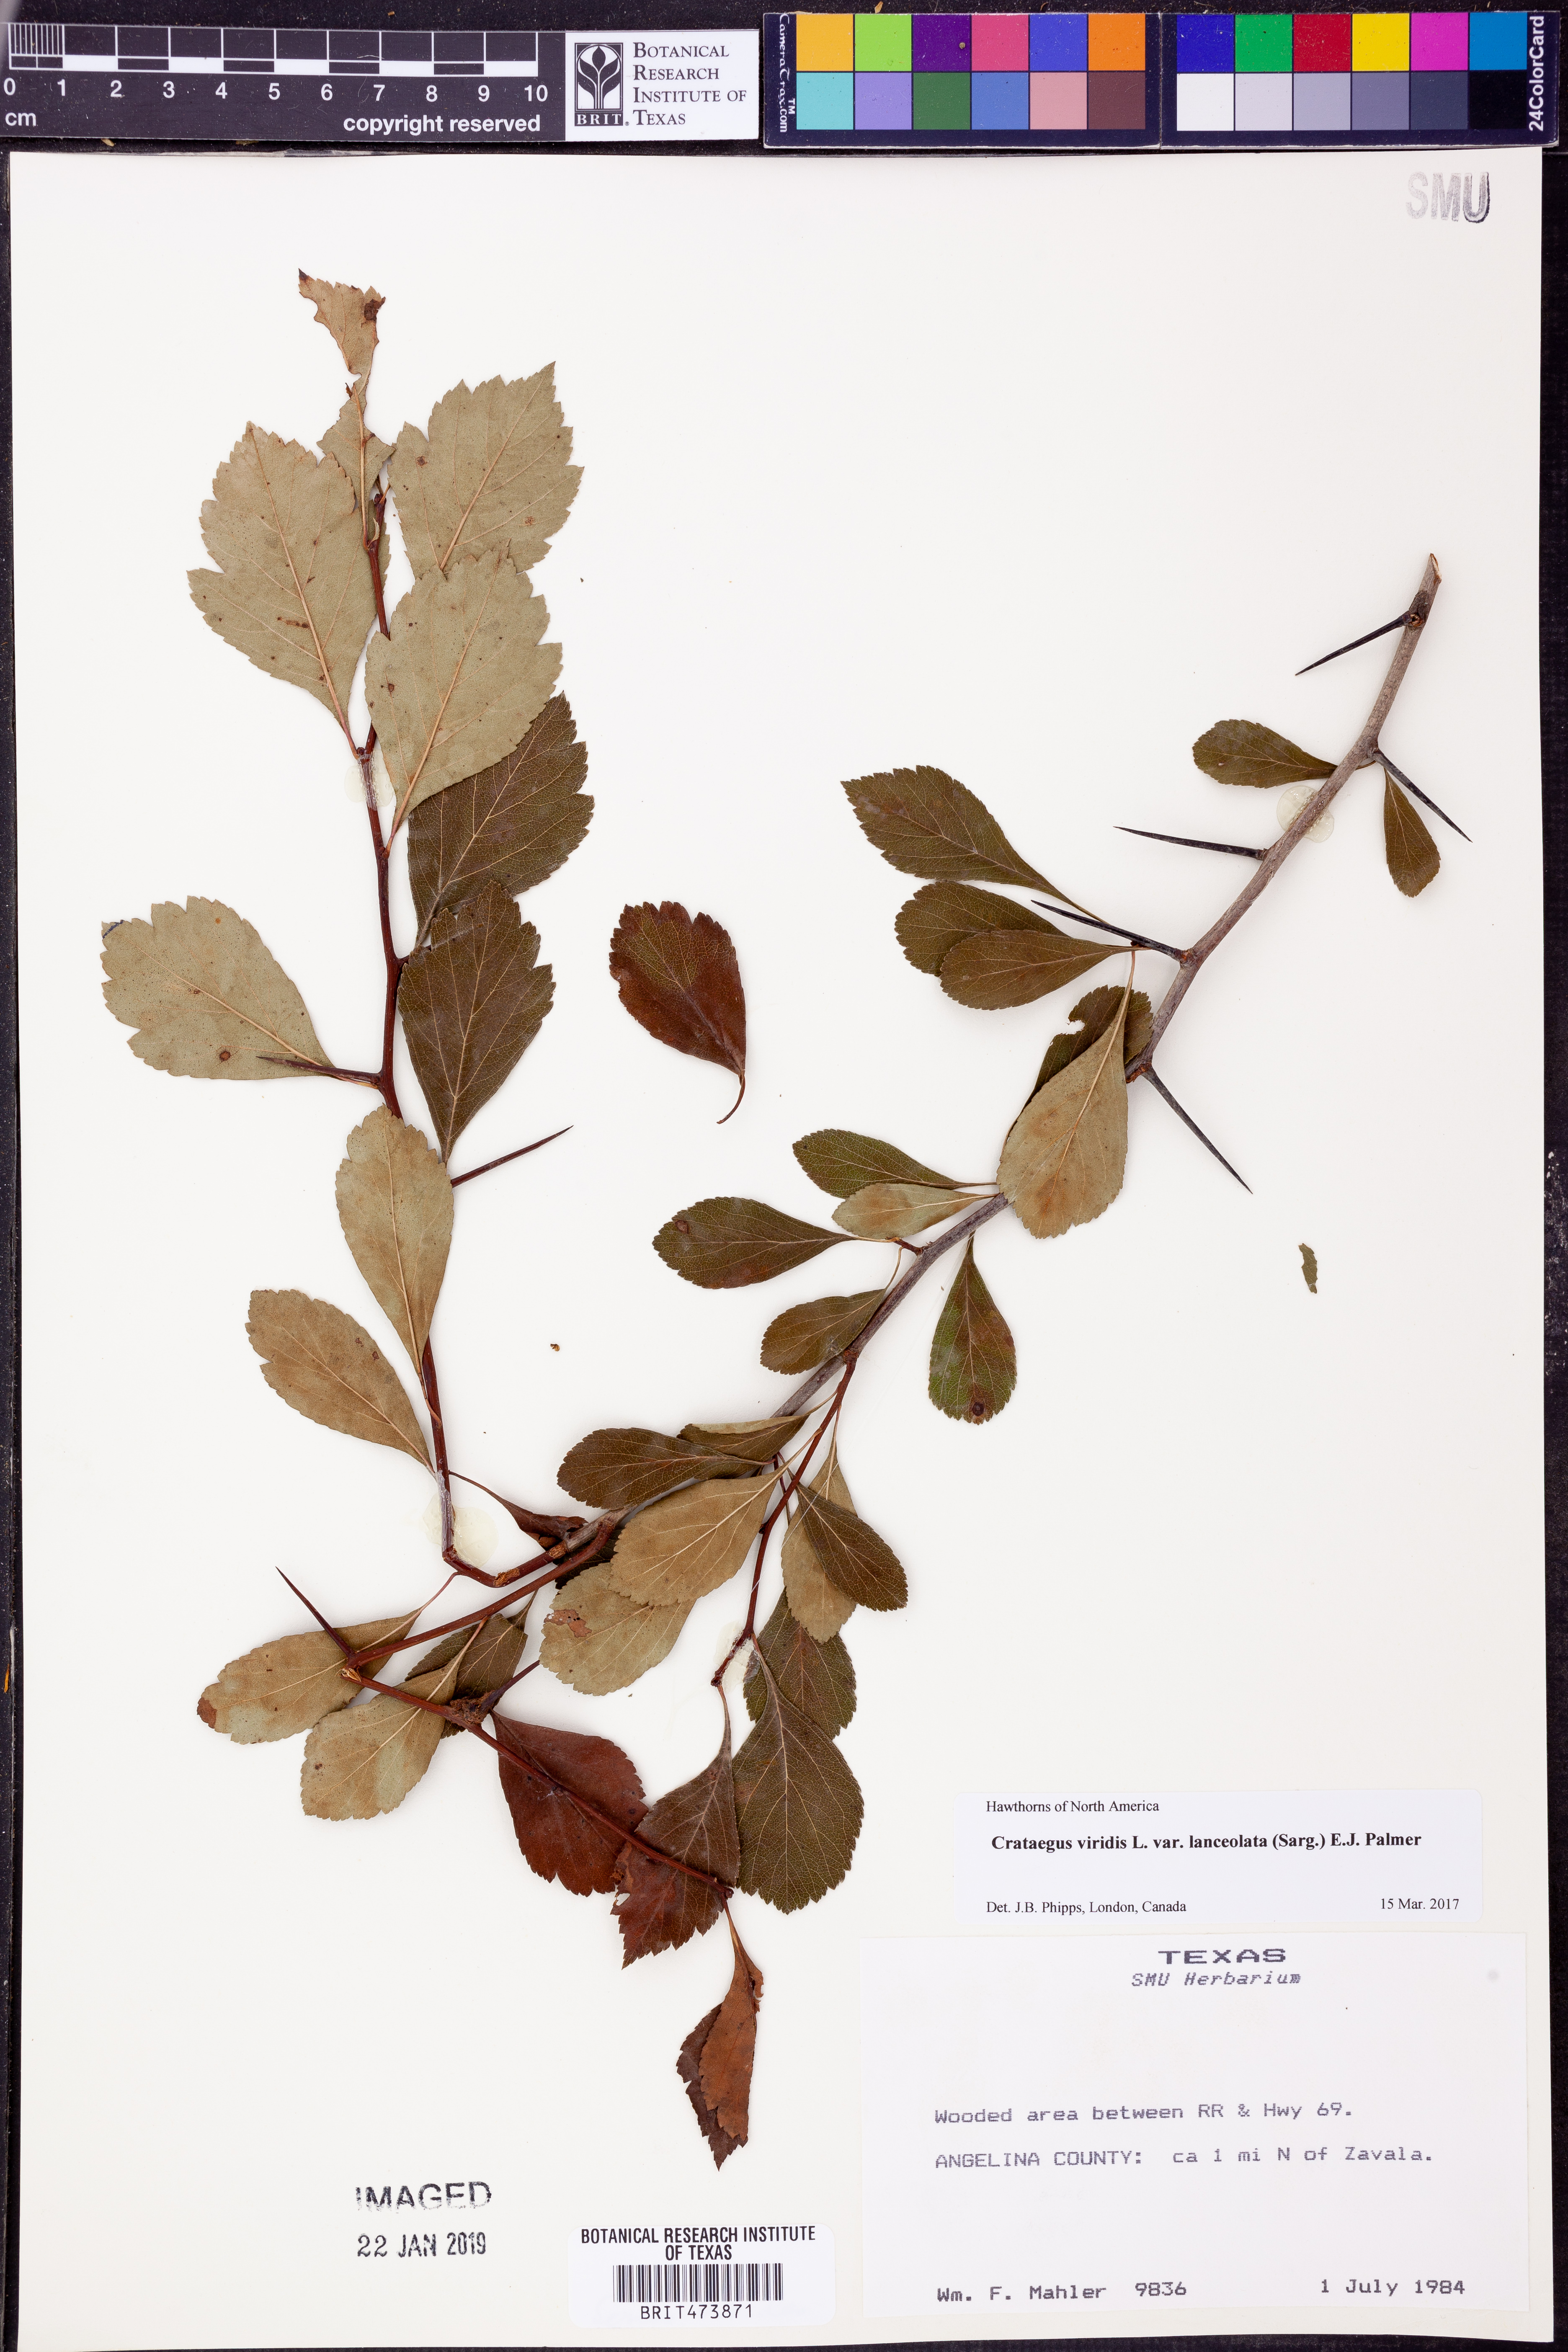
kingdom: Plantae
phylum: Tracheophyta
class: Magnoliopsida
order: Rosales
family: Rosaceae
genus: Crataegus
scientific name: Crataegus viridis
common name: Southernthorn
